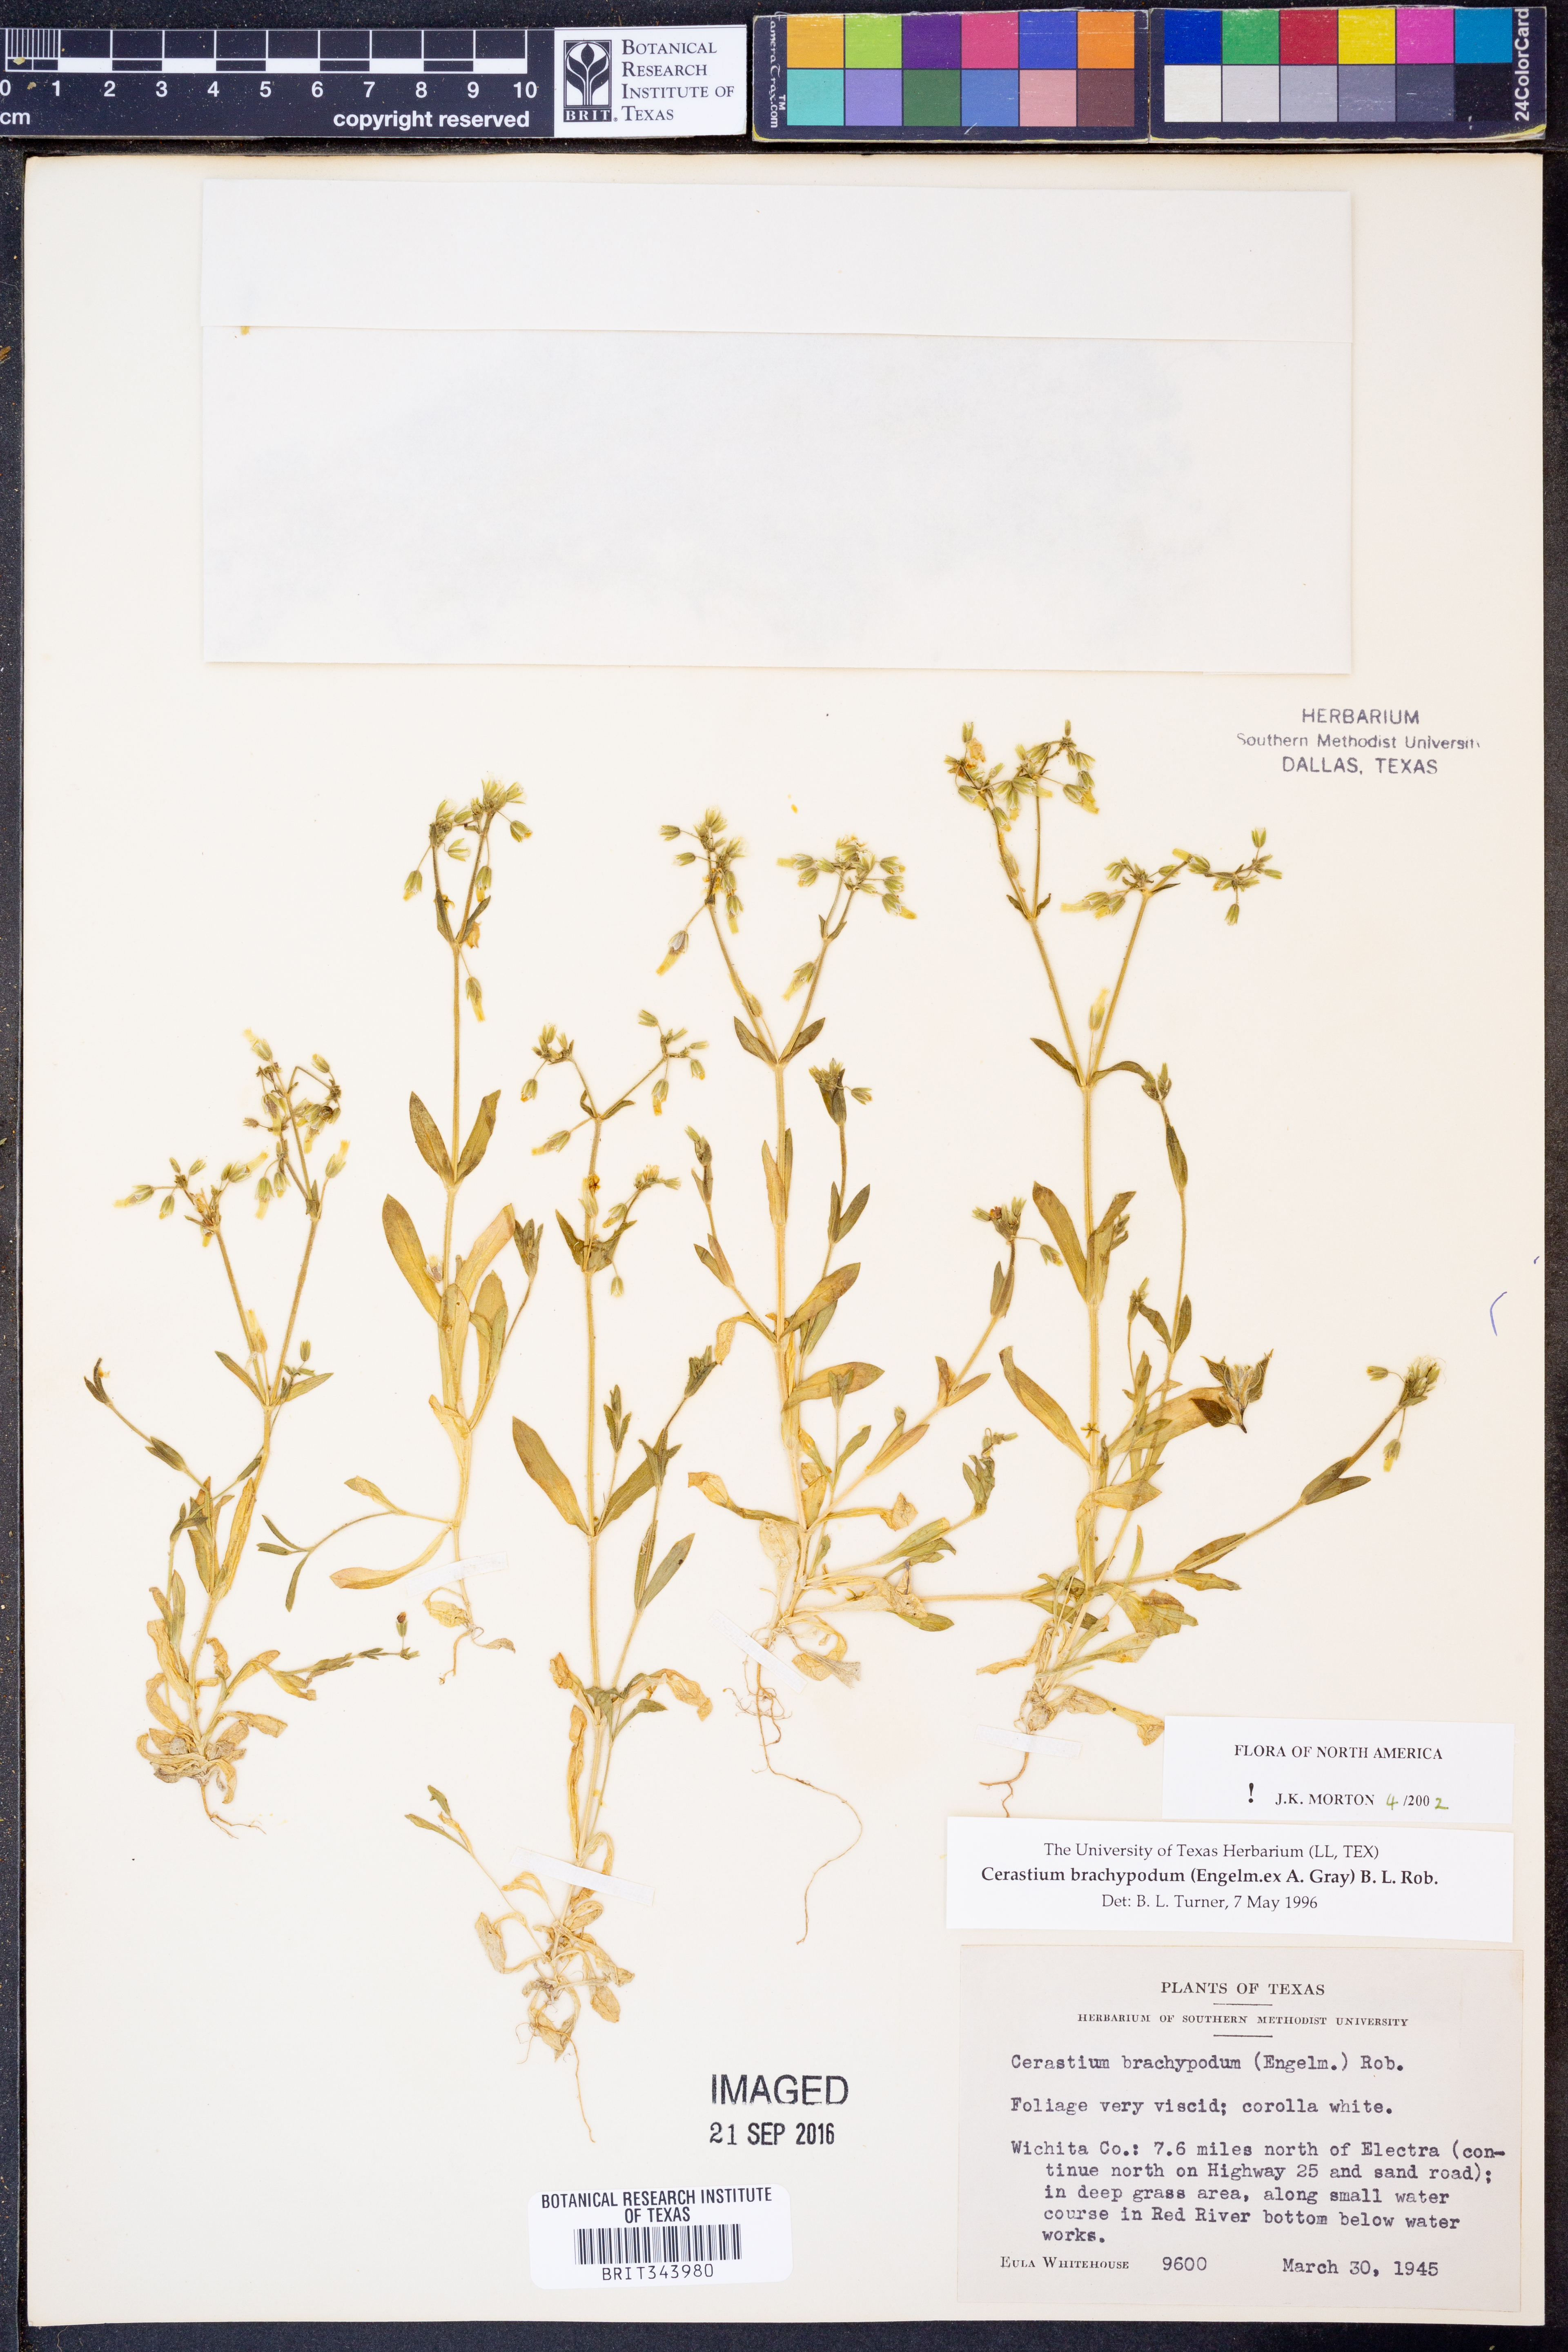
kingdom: Plantae
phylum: Tracheophyta
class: Magnoliopsida
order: Caryophyllales
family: Caryophyllaceae
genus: Cerastium
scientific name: Cerastium brachypodum
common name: Short-pedicelled nodding chickweed
